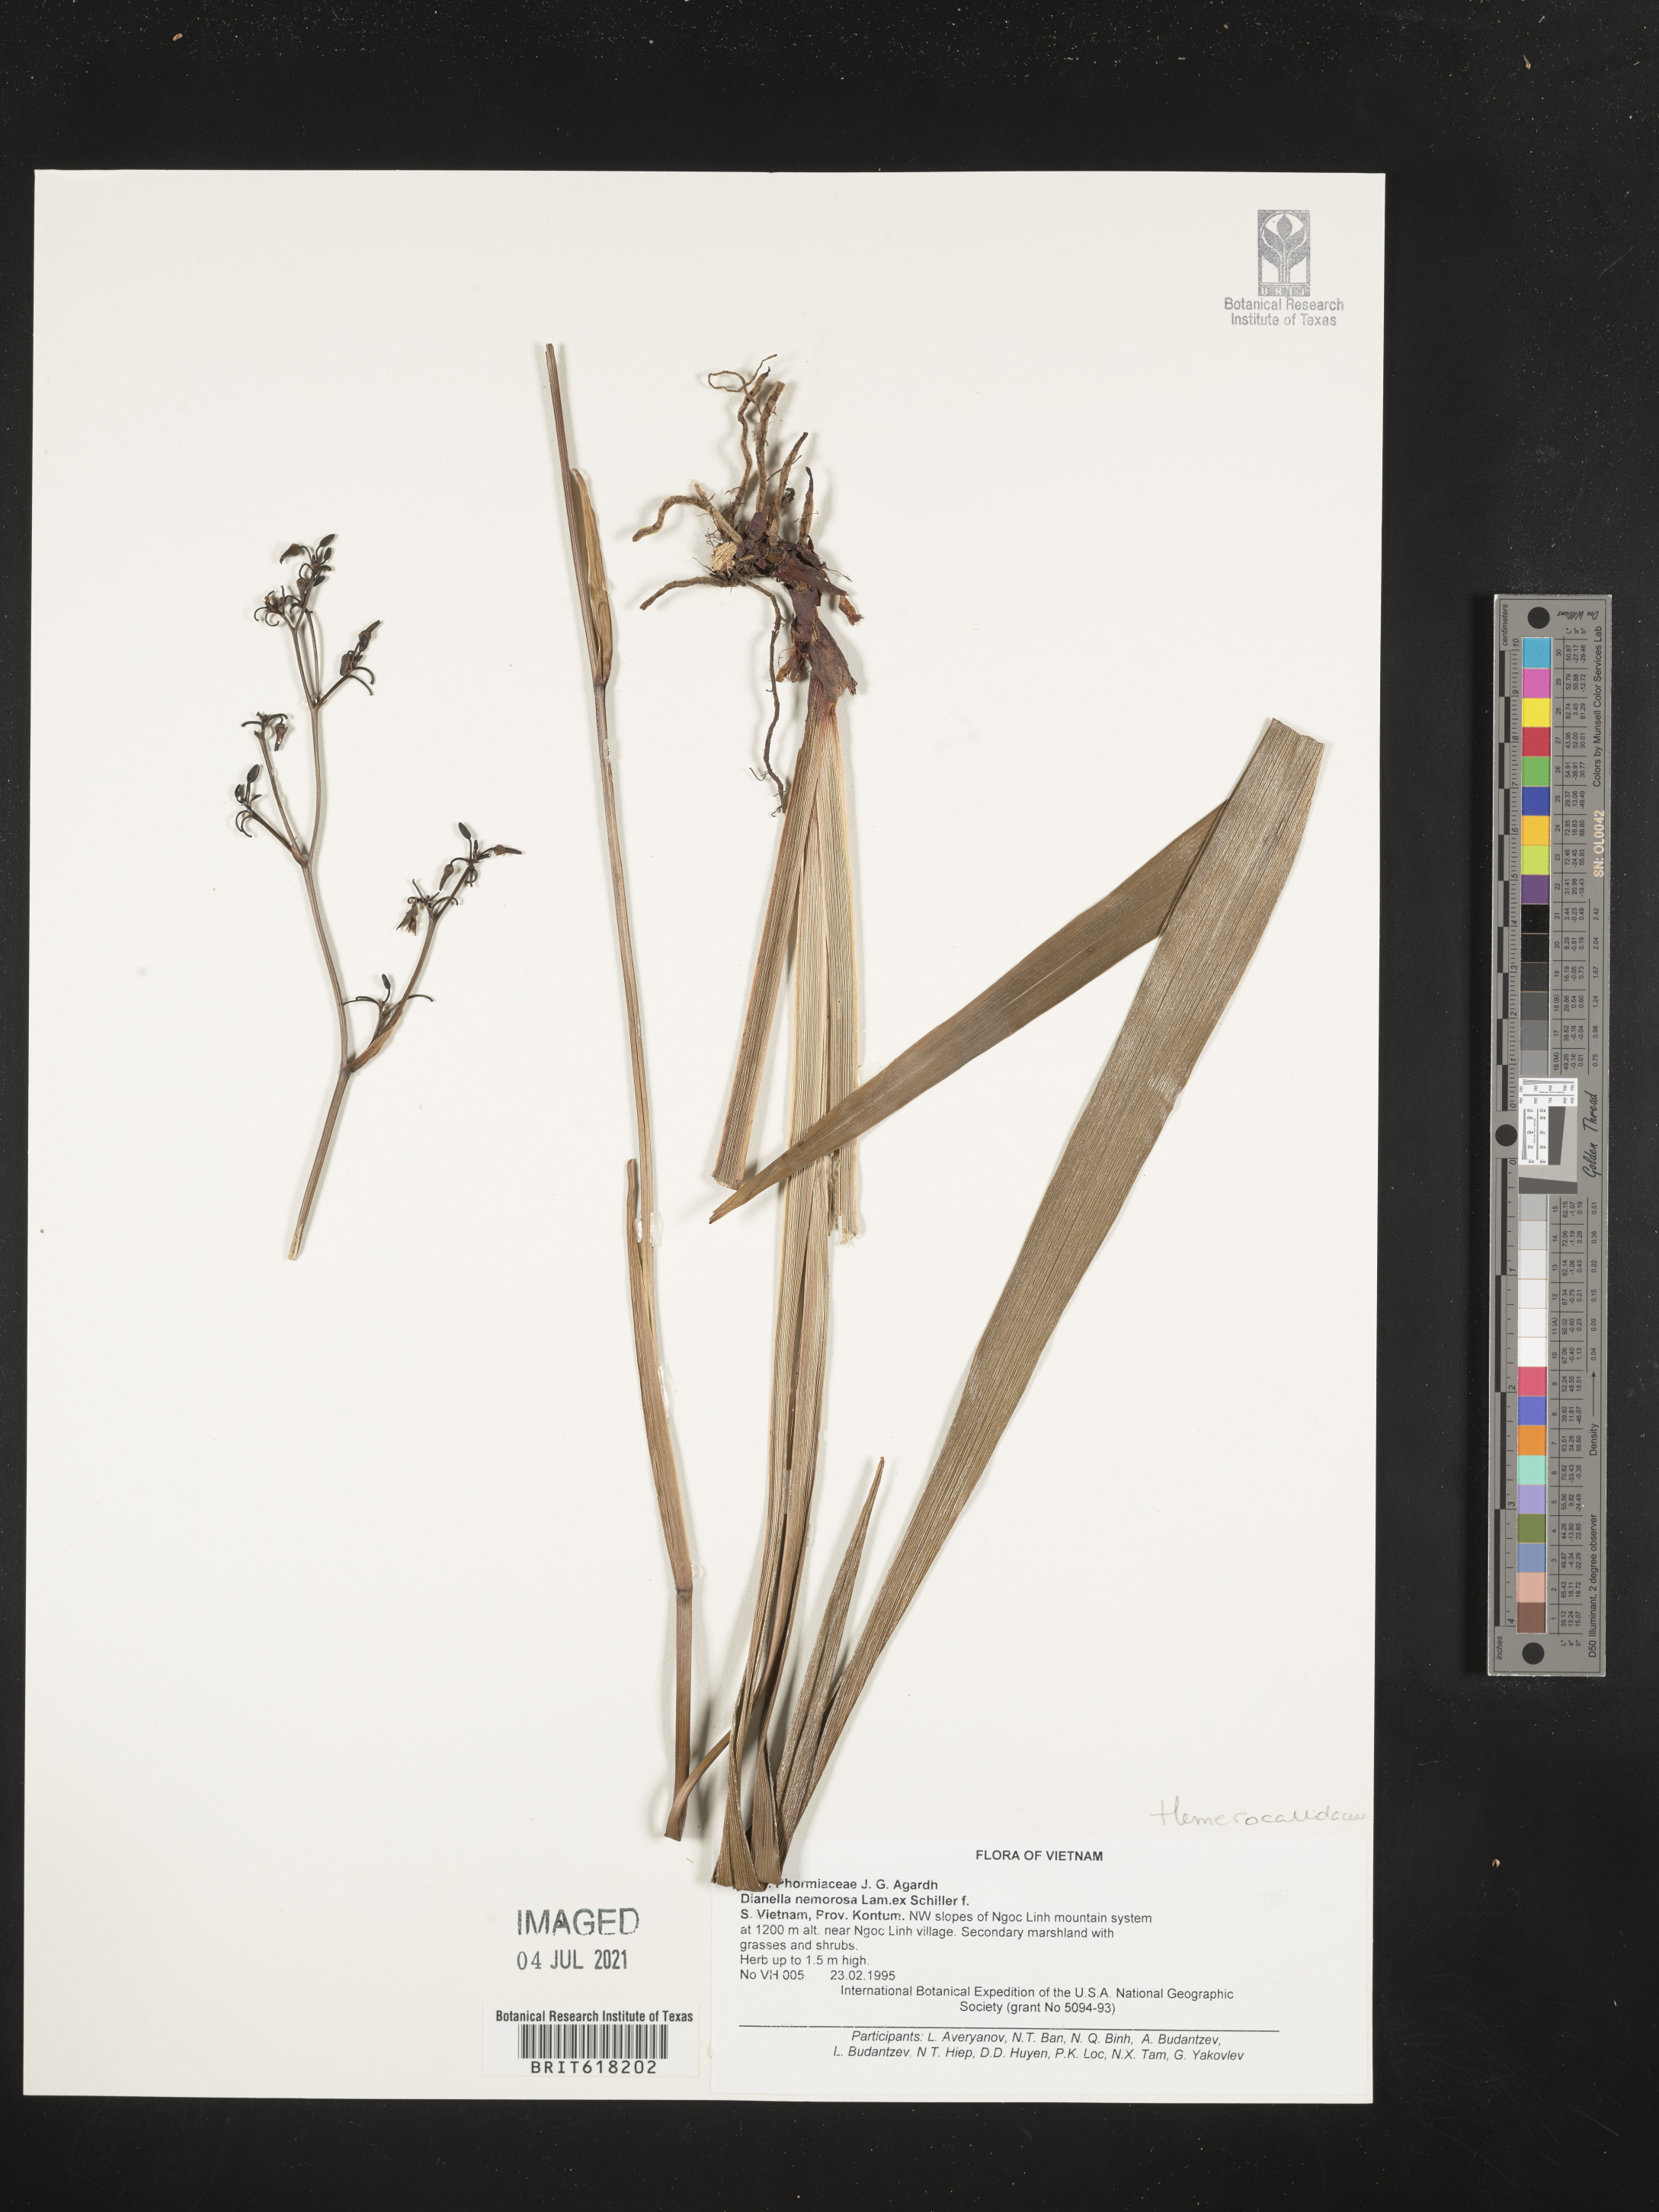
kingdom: Plantae
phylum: Tracheophyta
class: Liliopsida
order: Asparagales
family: Asphodelaceae
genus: Dianella
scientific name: Dianella ensifolia
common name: New zealand lilyplant
